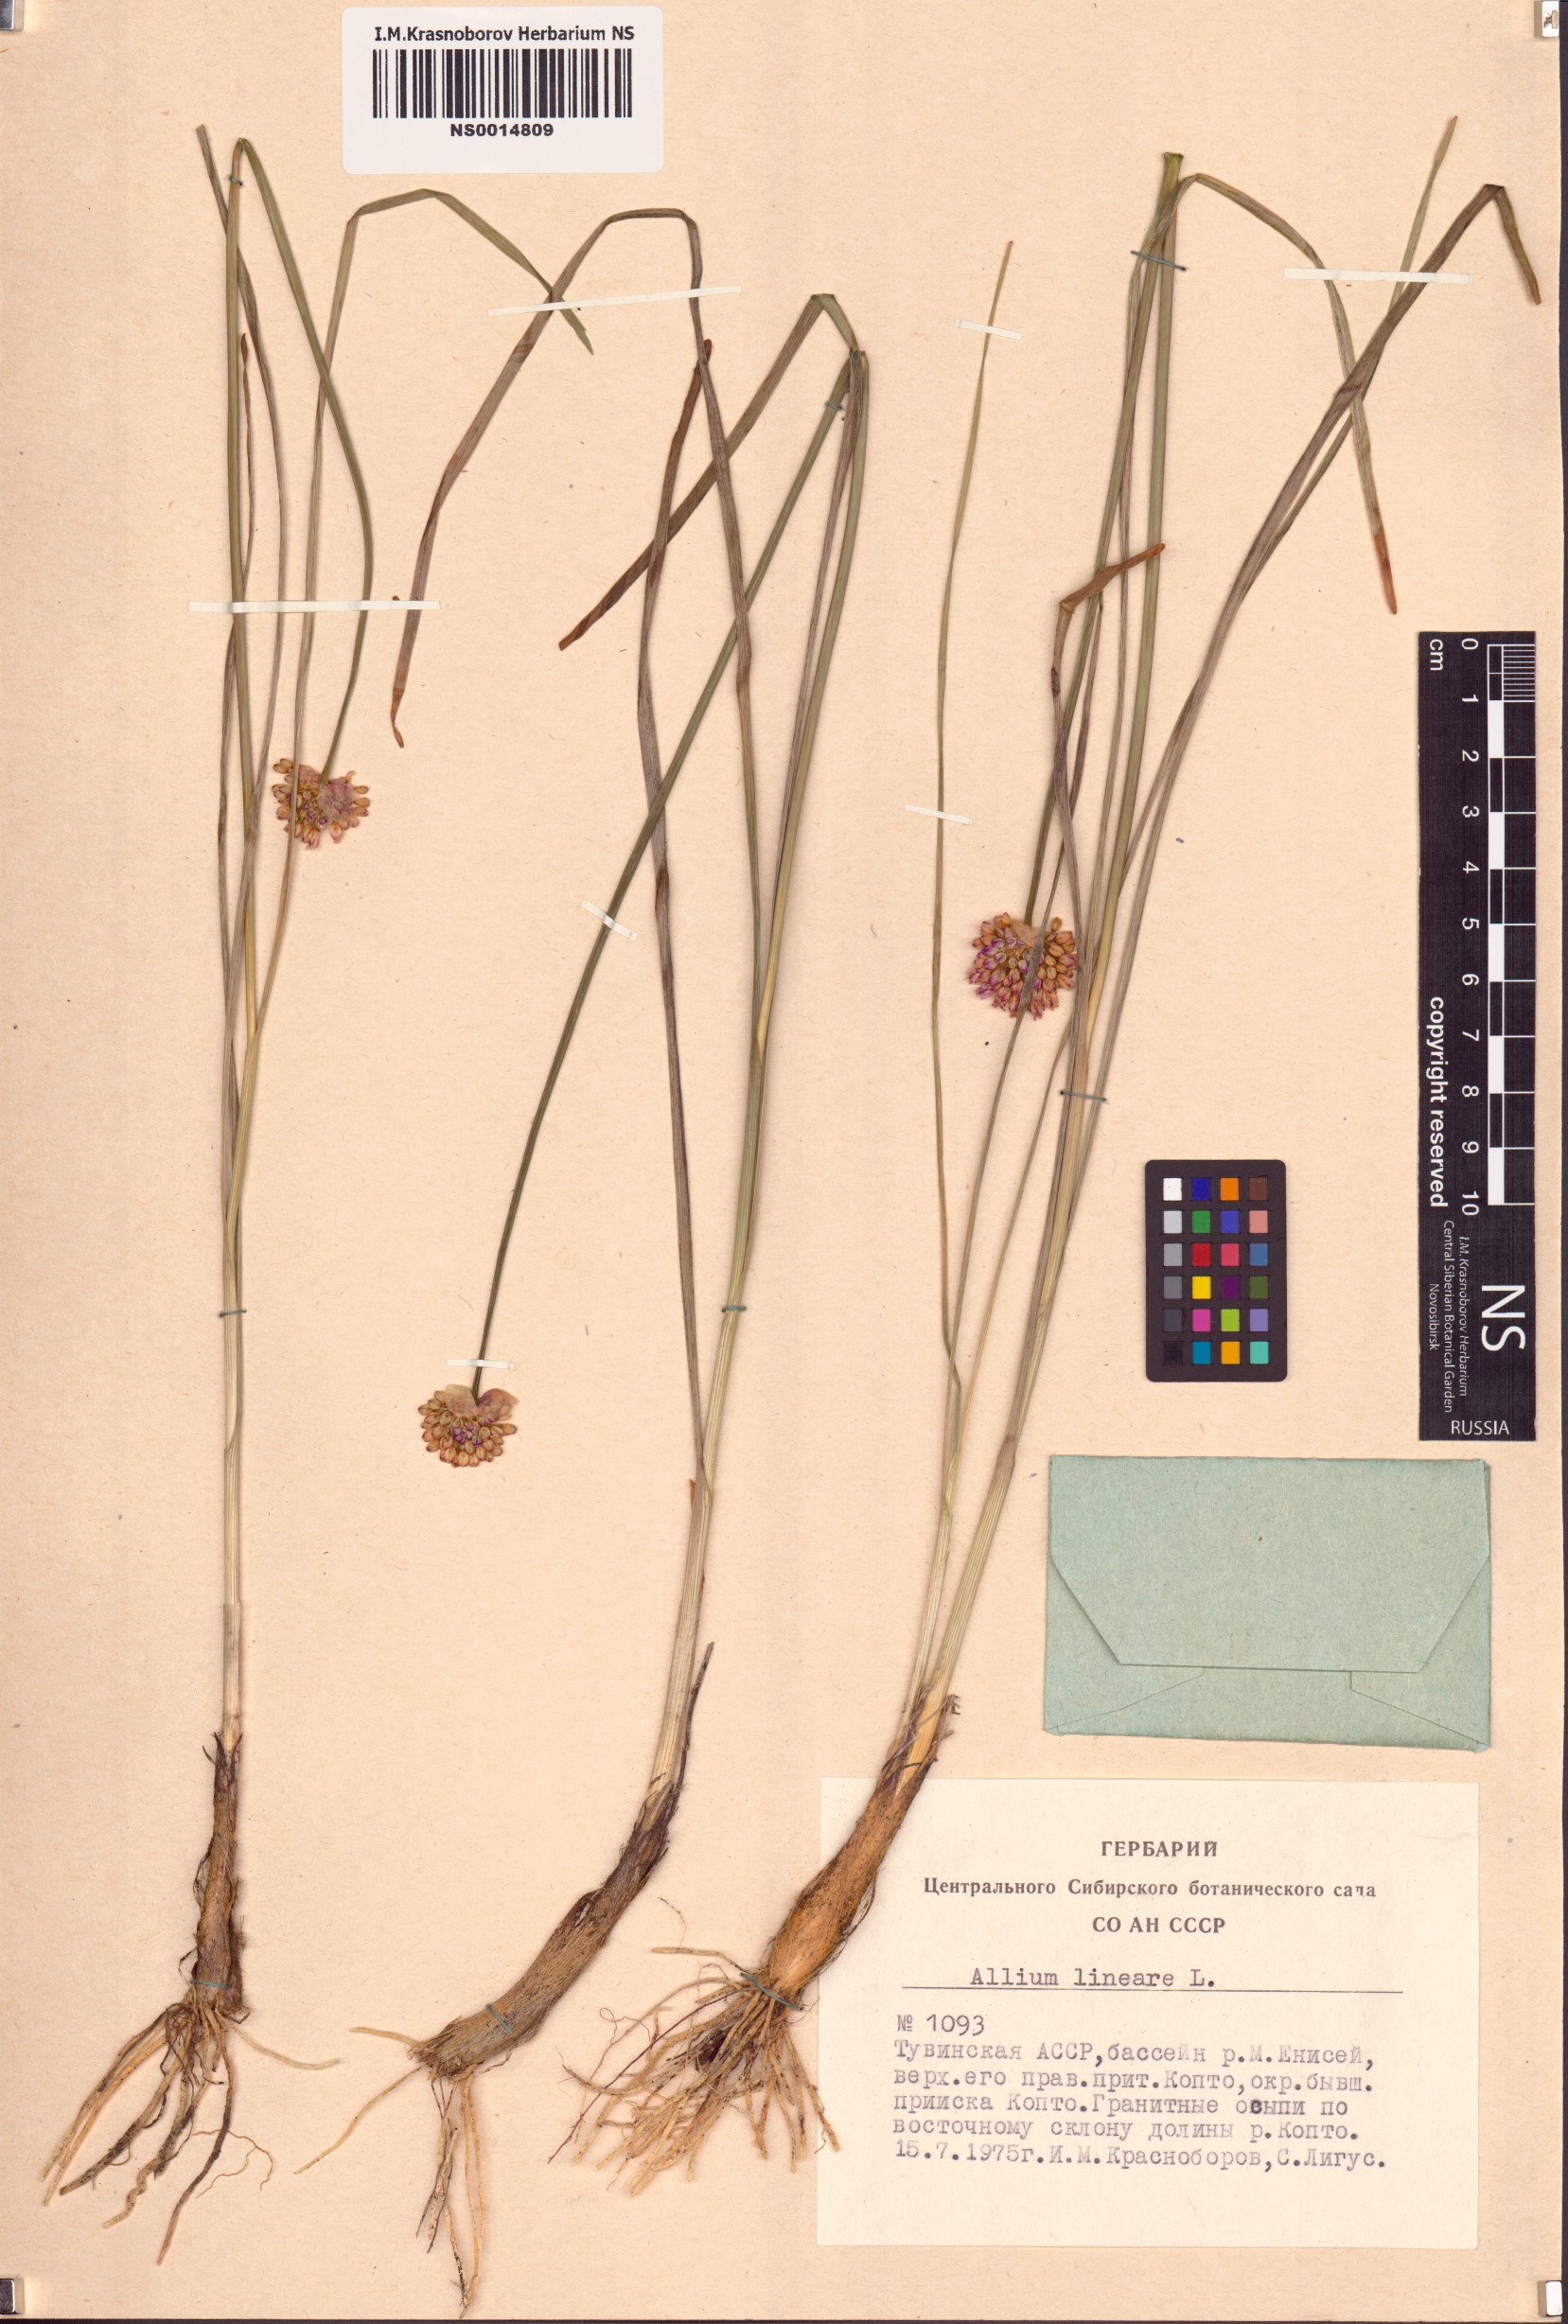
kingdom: Plantae
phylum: Tracheophyta
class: Liliopsida
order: Asparagales
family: Amaryllidaceae
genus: Allium
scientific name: Allium lineare
